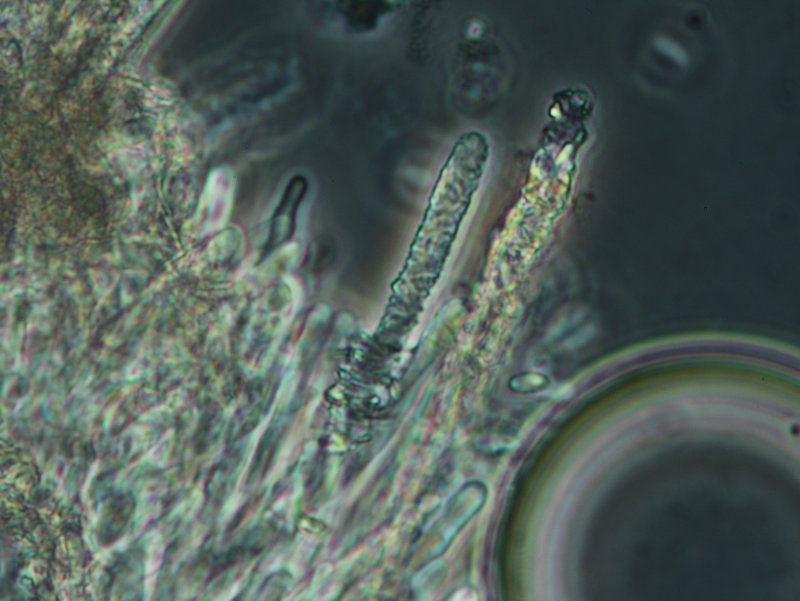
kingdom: Fungi
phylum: Basidiomycota
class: Agaricomycetes
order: Polyporales
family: Meruliaceae
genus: Mycoacia
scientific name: Mycoacia fuscoatra
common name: mørk vokspig
